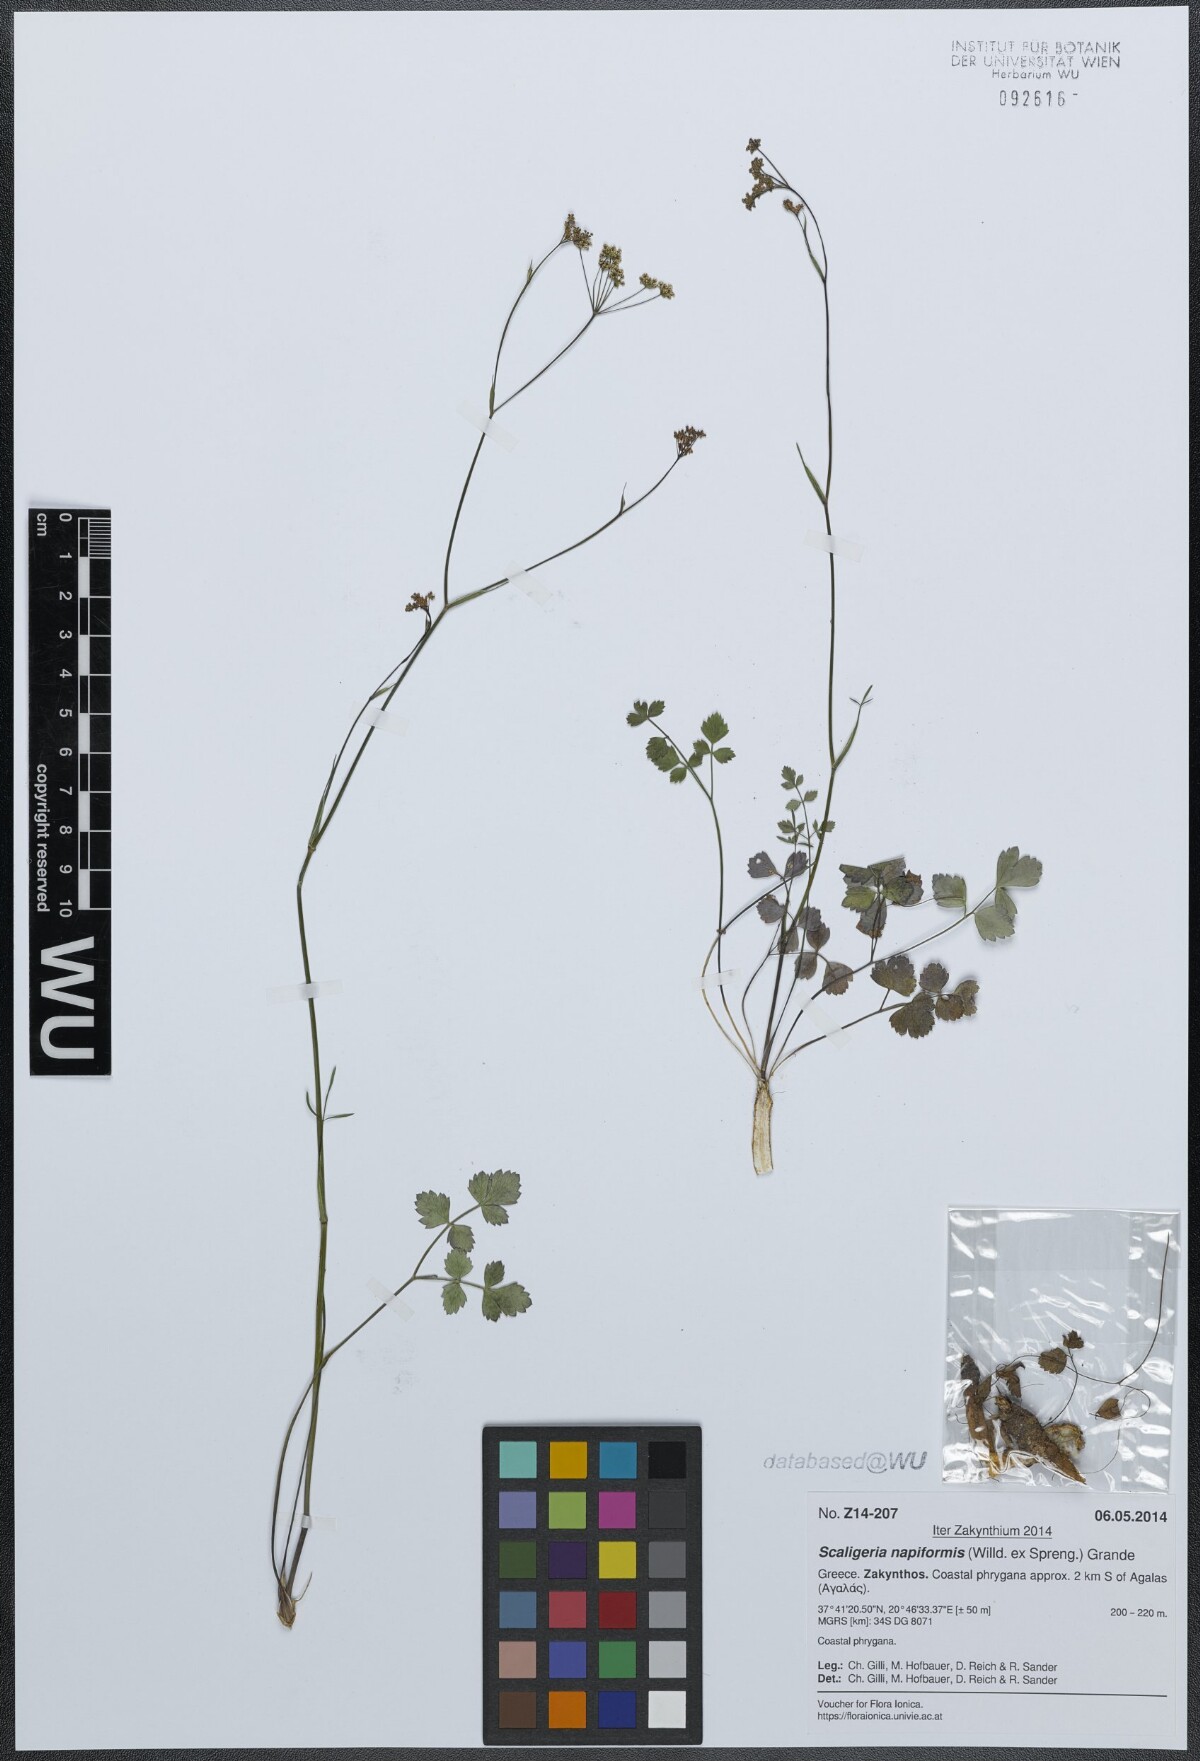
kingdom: Plantae
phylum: Tracheophyta
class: Magnoliopsida
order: Apiales
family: Apiaceae
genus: Scaligeria
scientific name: Scaligeria napiformis
